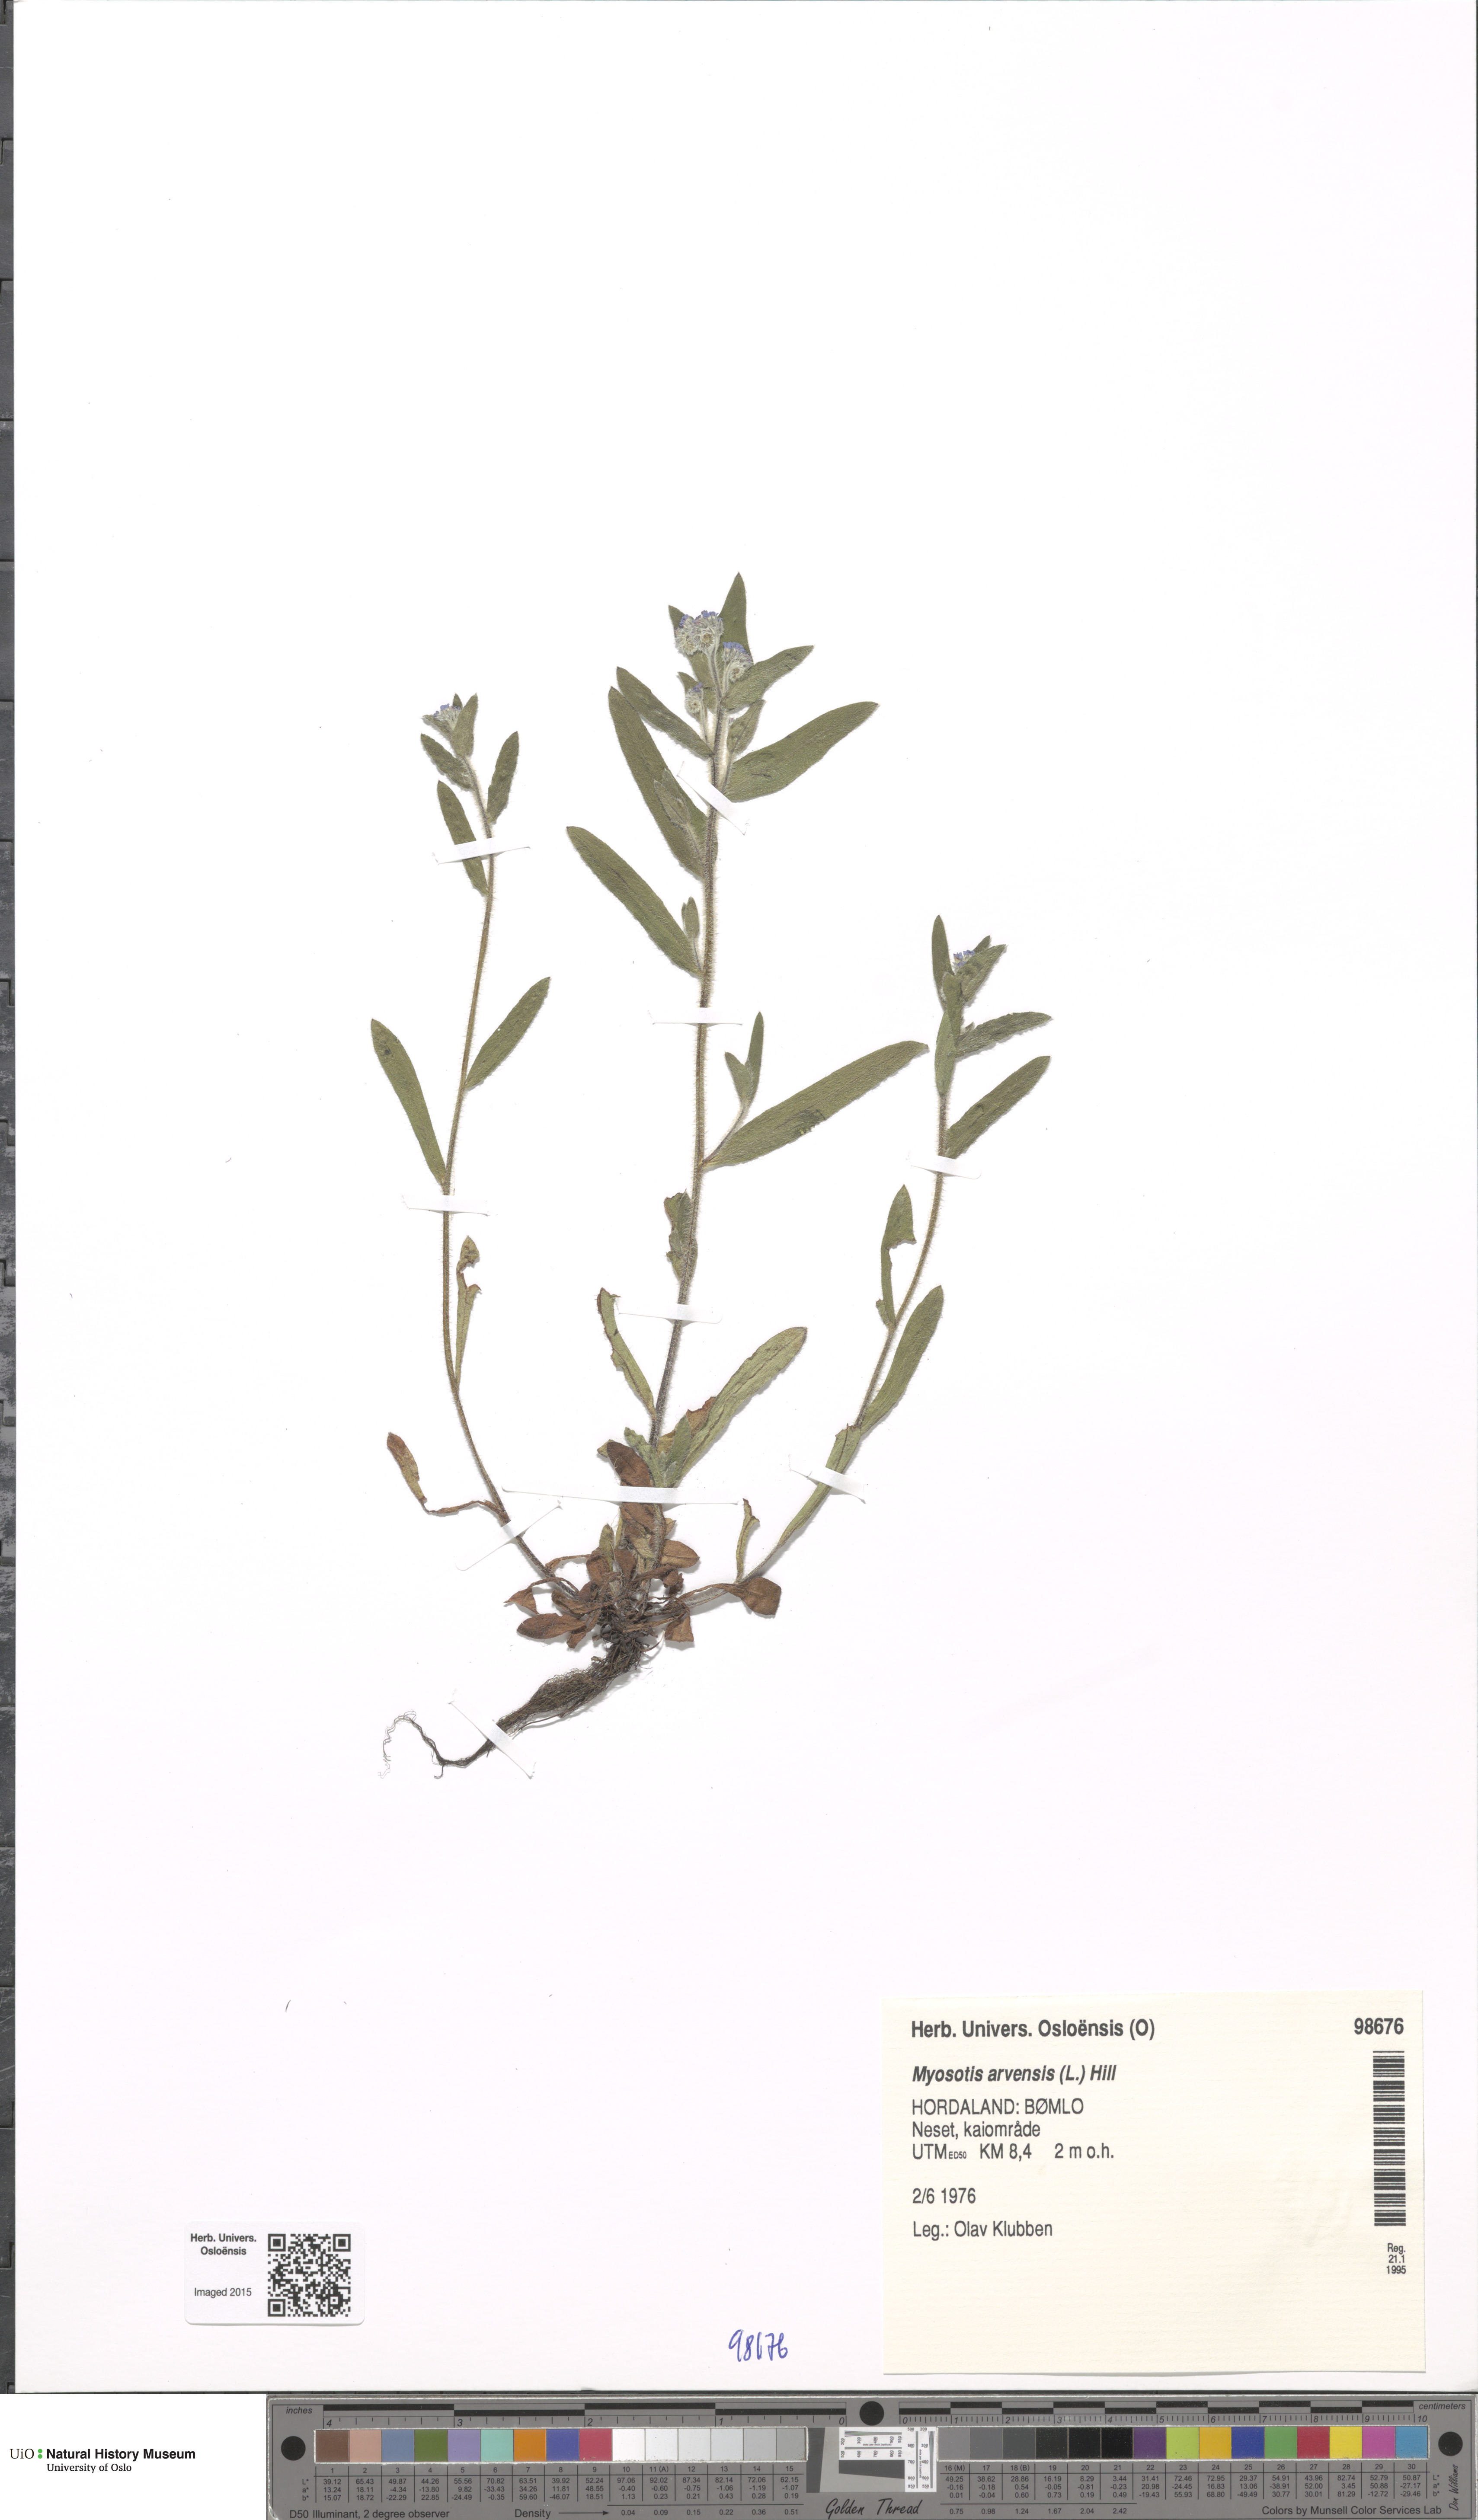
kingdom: Plantae
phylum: Tracheophyta
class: Magnoliopsida
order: Boraginales
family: Boraginaceae
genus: Myosotis
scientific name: Myosotis arvensis
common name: Field forget-me-not
